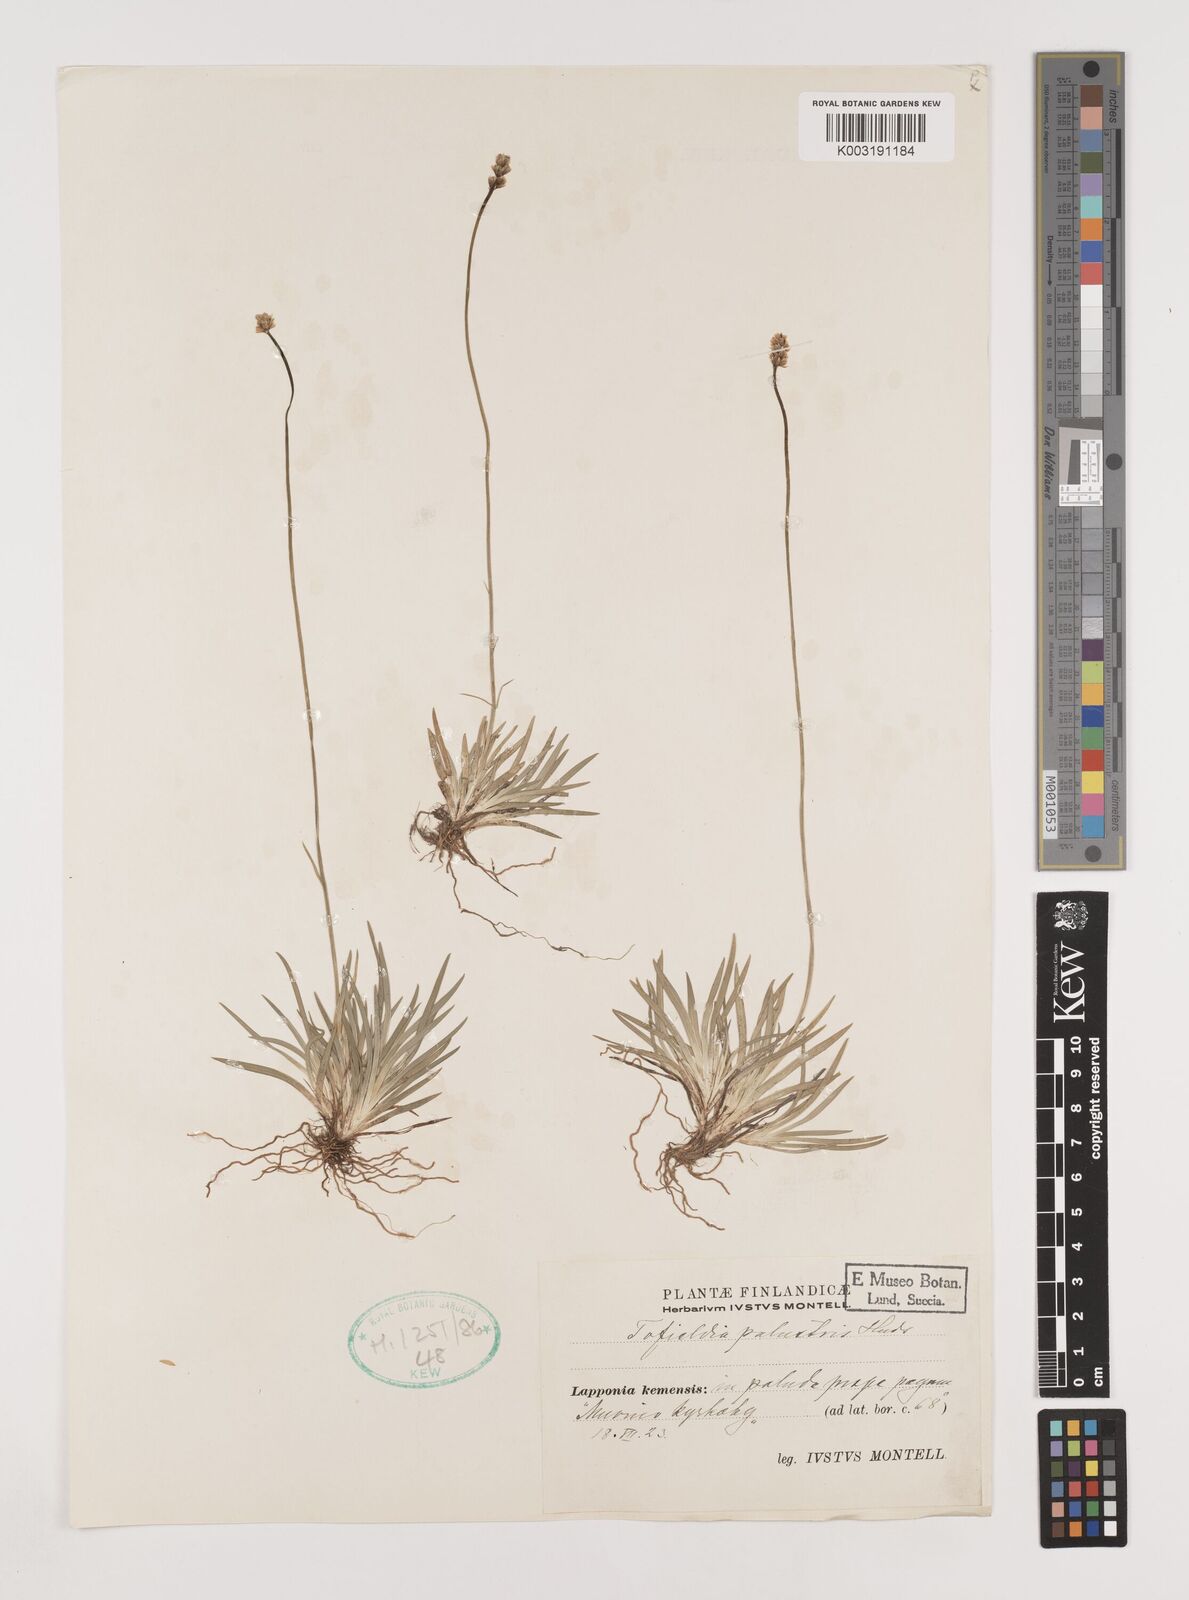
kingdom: Plantae
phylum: Tracheophyta
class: Liliopsida
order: Alismatales
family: Tofieldiaceae
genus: Tofieldia
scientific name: Tofieldia calyculata
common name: German-asphodel
